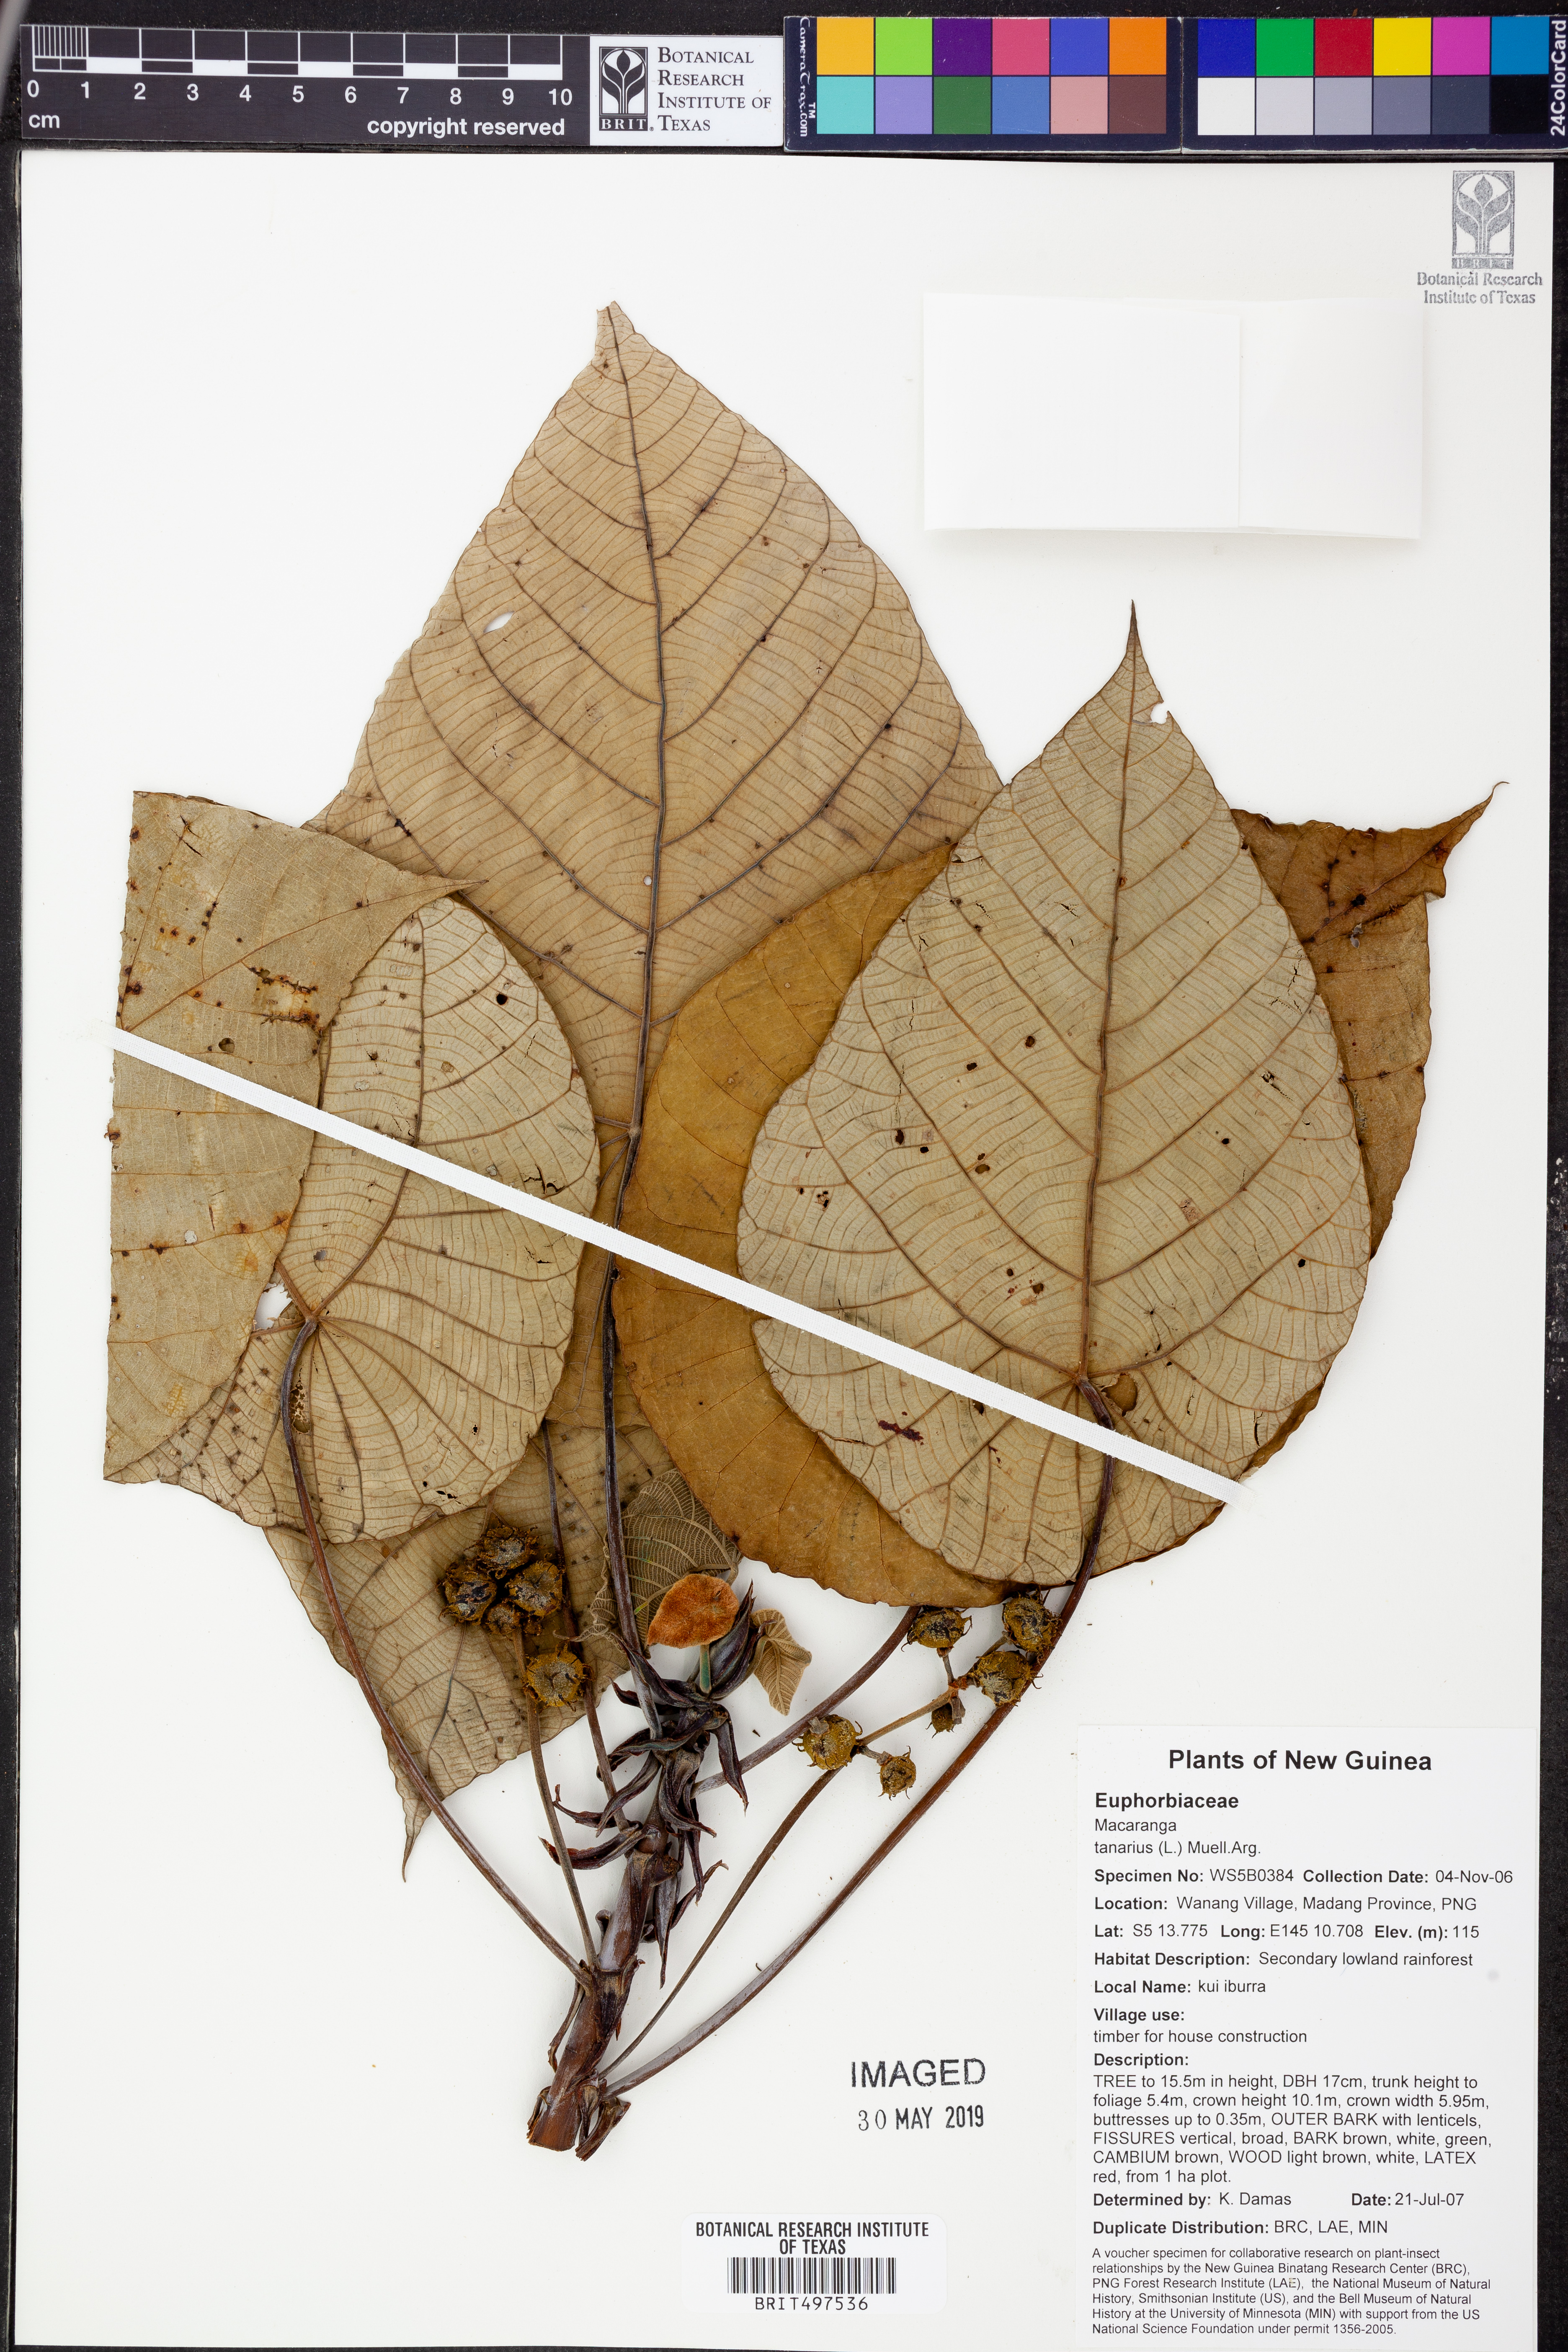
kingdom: Plantae
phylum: Tracheophyta
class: Magnoliopsida
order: Malpighiales
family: Euphorbiaceae
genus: Macaranga
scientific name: Macaranga tanarius
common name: Parasol leaf tree
